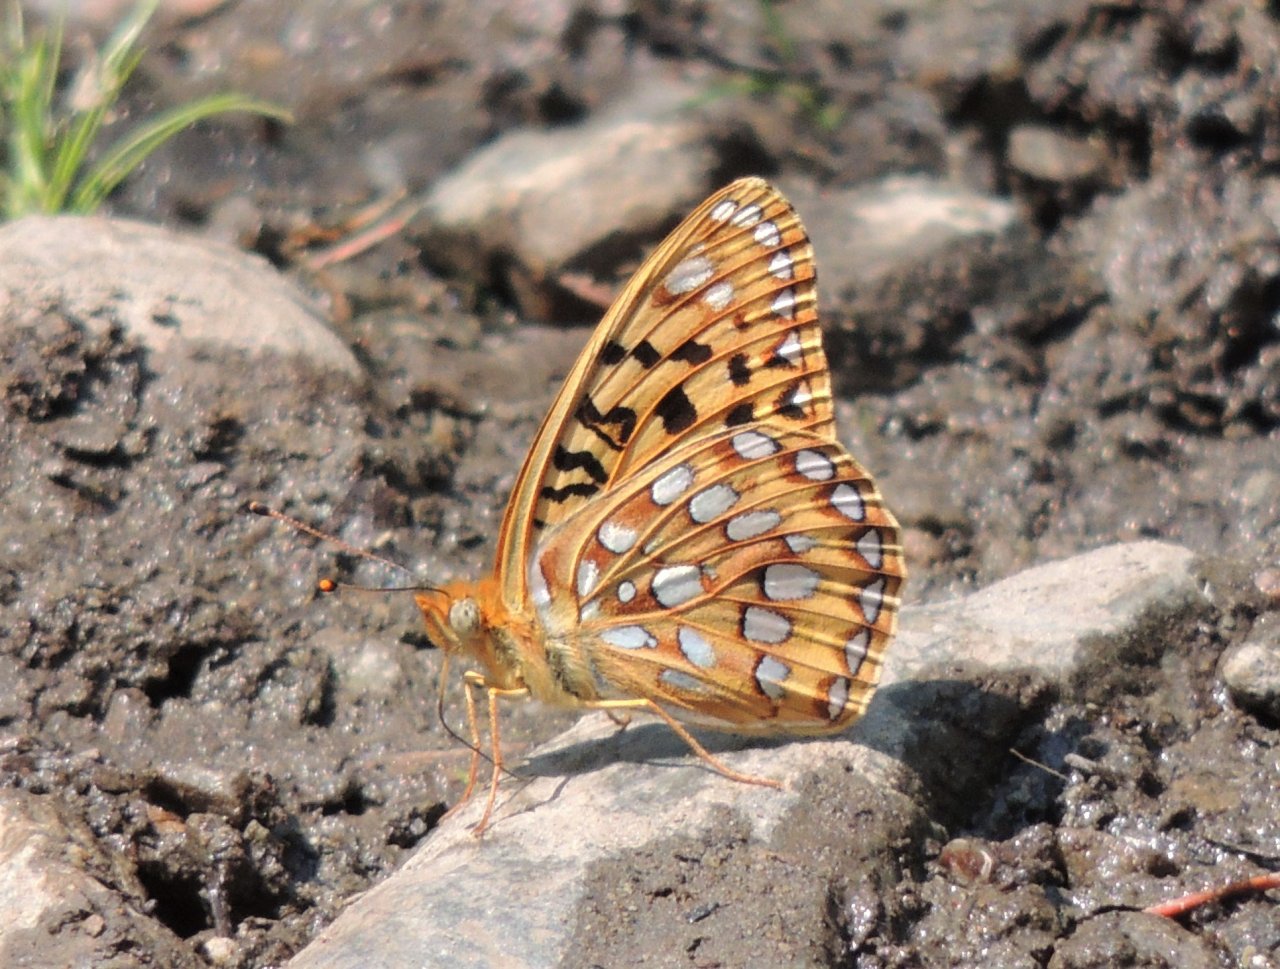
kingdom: Animalia
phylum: Arthropoda
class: Insecta
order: Lepidoptera
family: Nymphalidae
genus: Speyeria
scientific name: Speyeria zerene
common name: Zerene Fritillary
